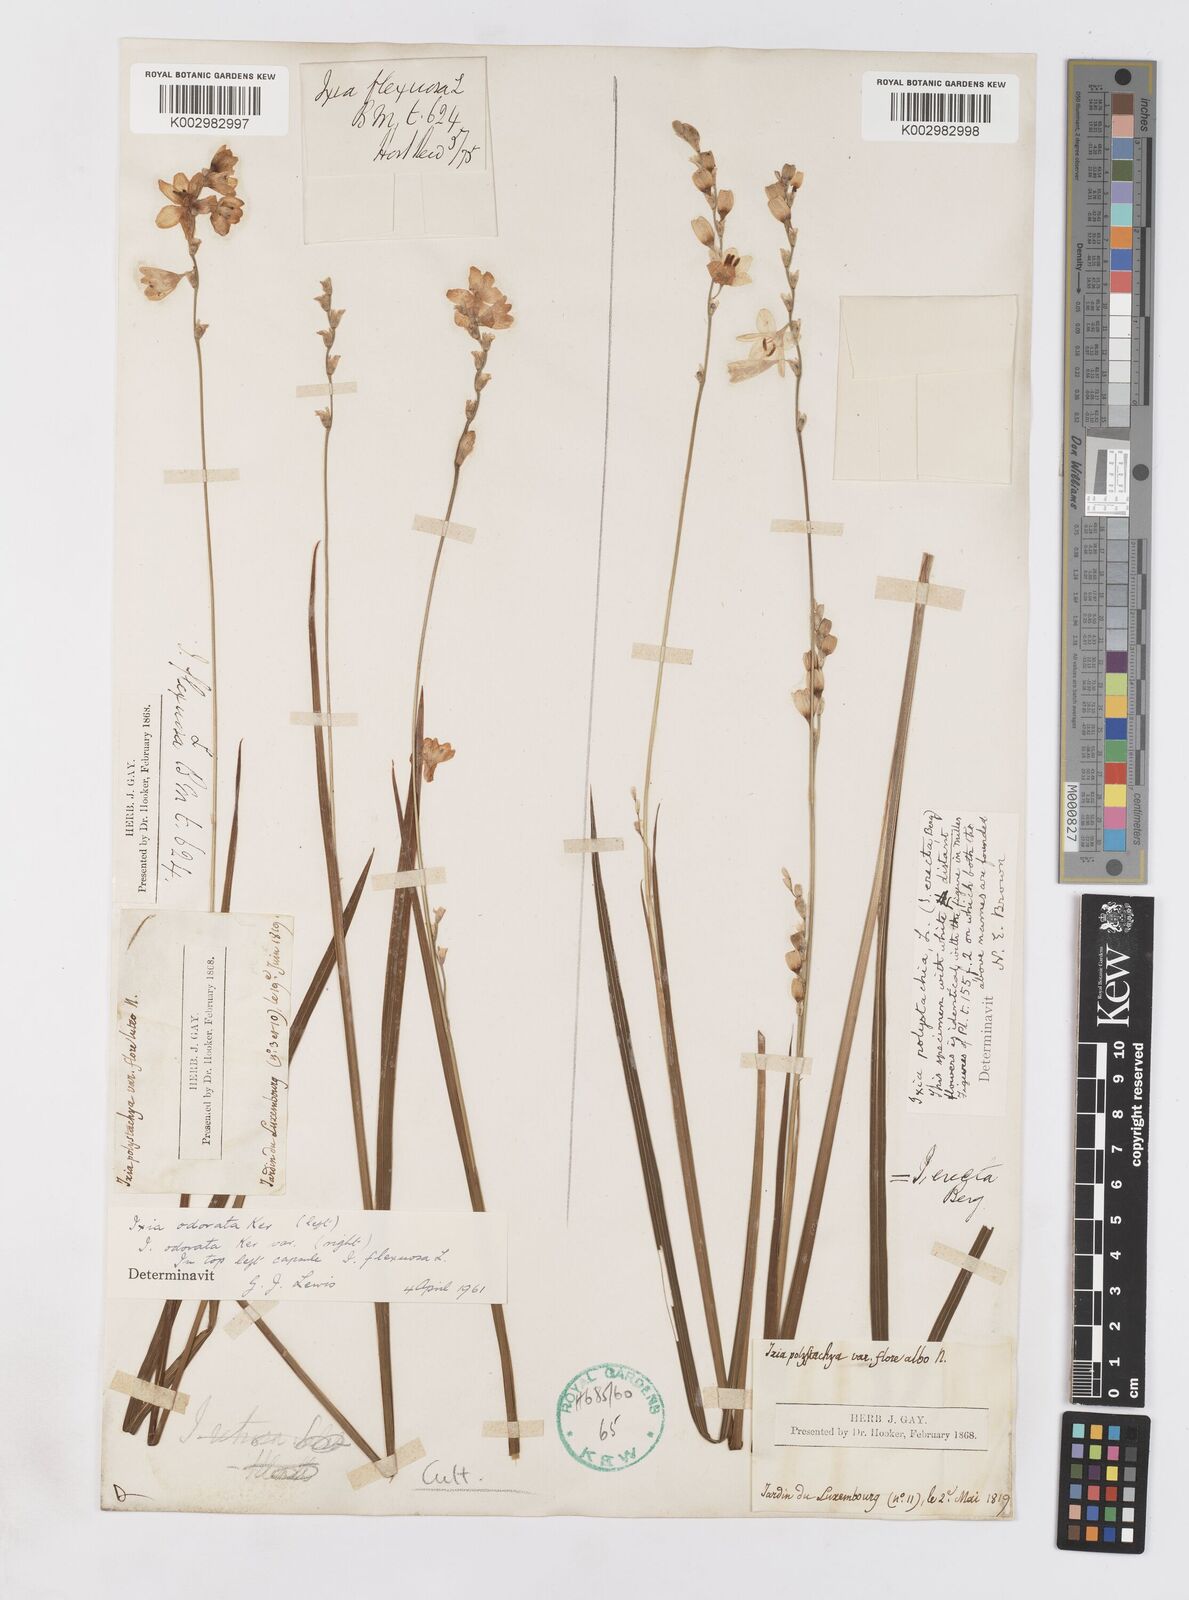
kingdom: Plantae
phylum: Tracheophyta
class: Liliopsida
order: Asparagales
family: Iridaceae
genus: Ixia
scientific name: Ixia odorata
